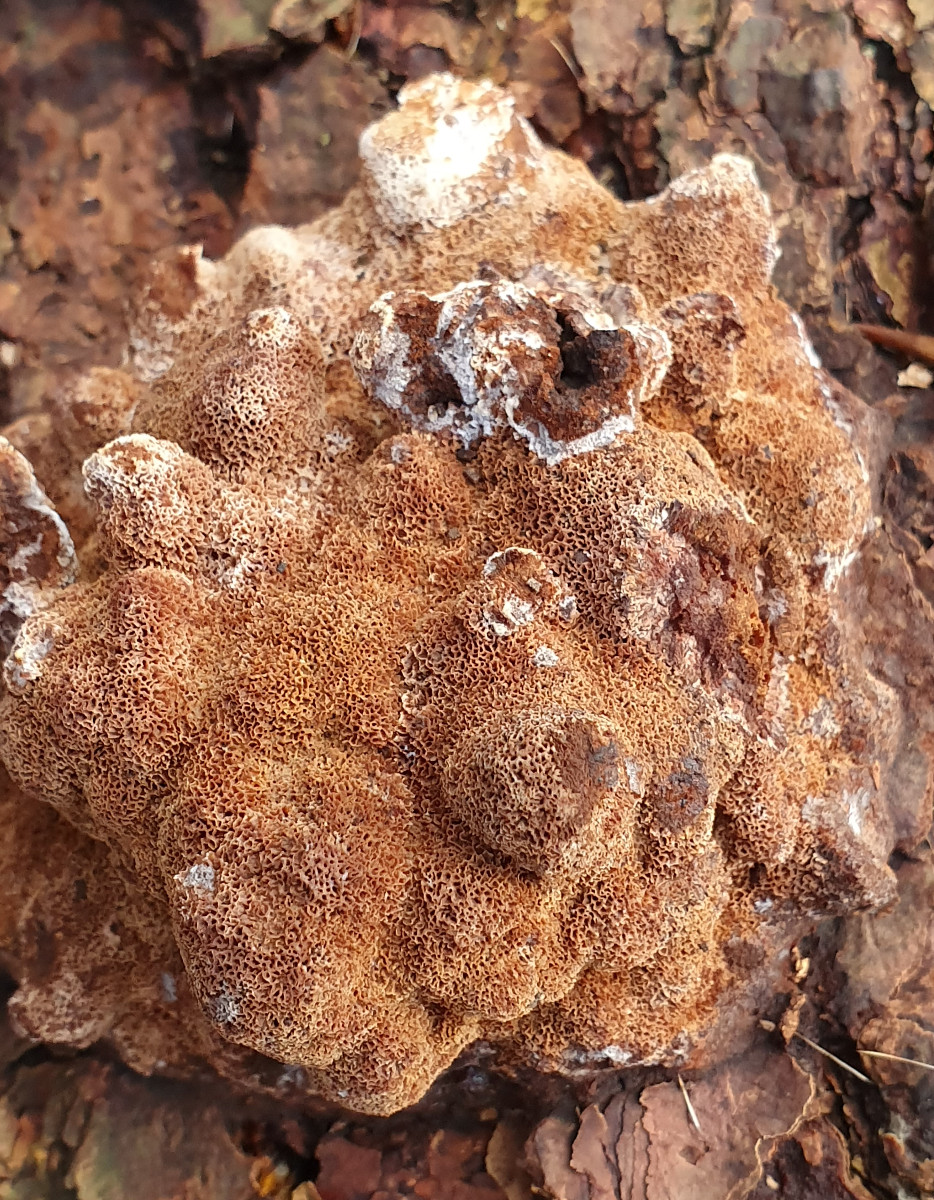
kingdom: Fungi
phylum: Basidiomycota
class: Agaricomycetes
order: Polyporales
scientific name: Polyporales
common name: poresvampordenen
